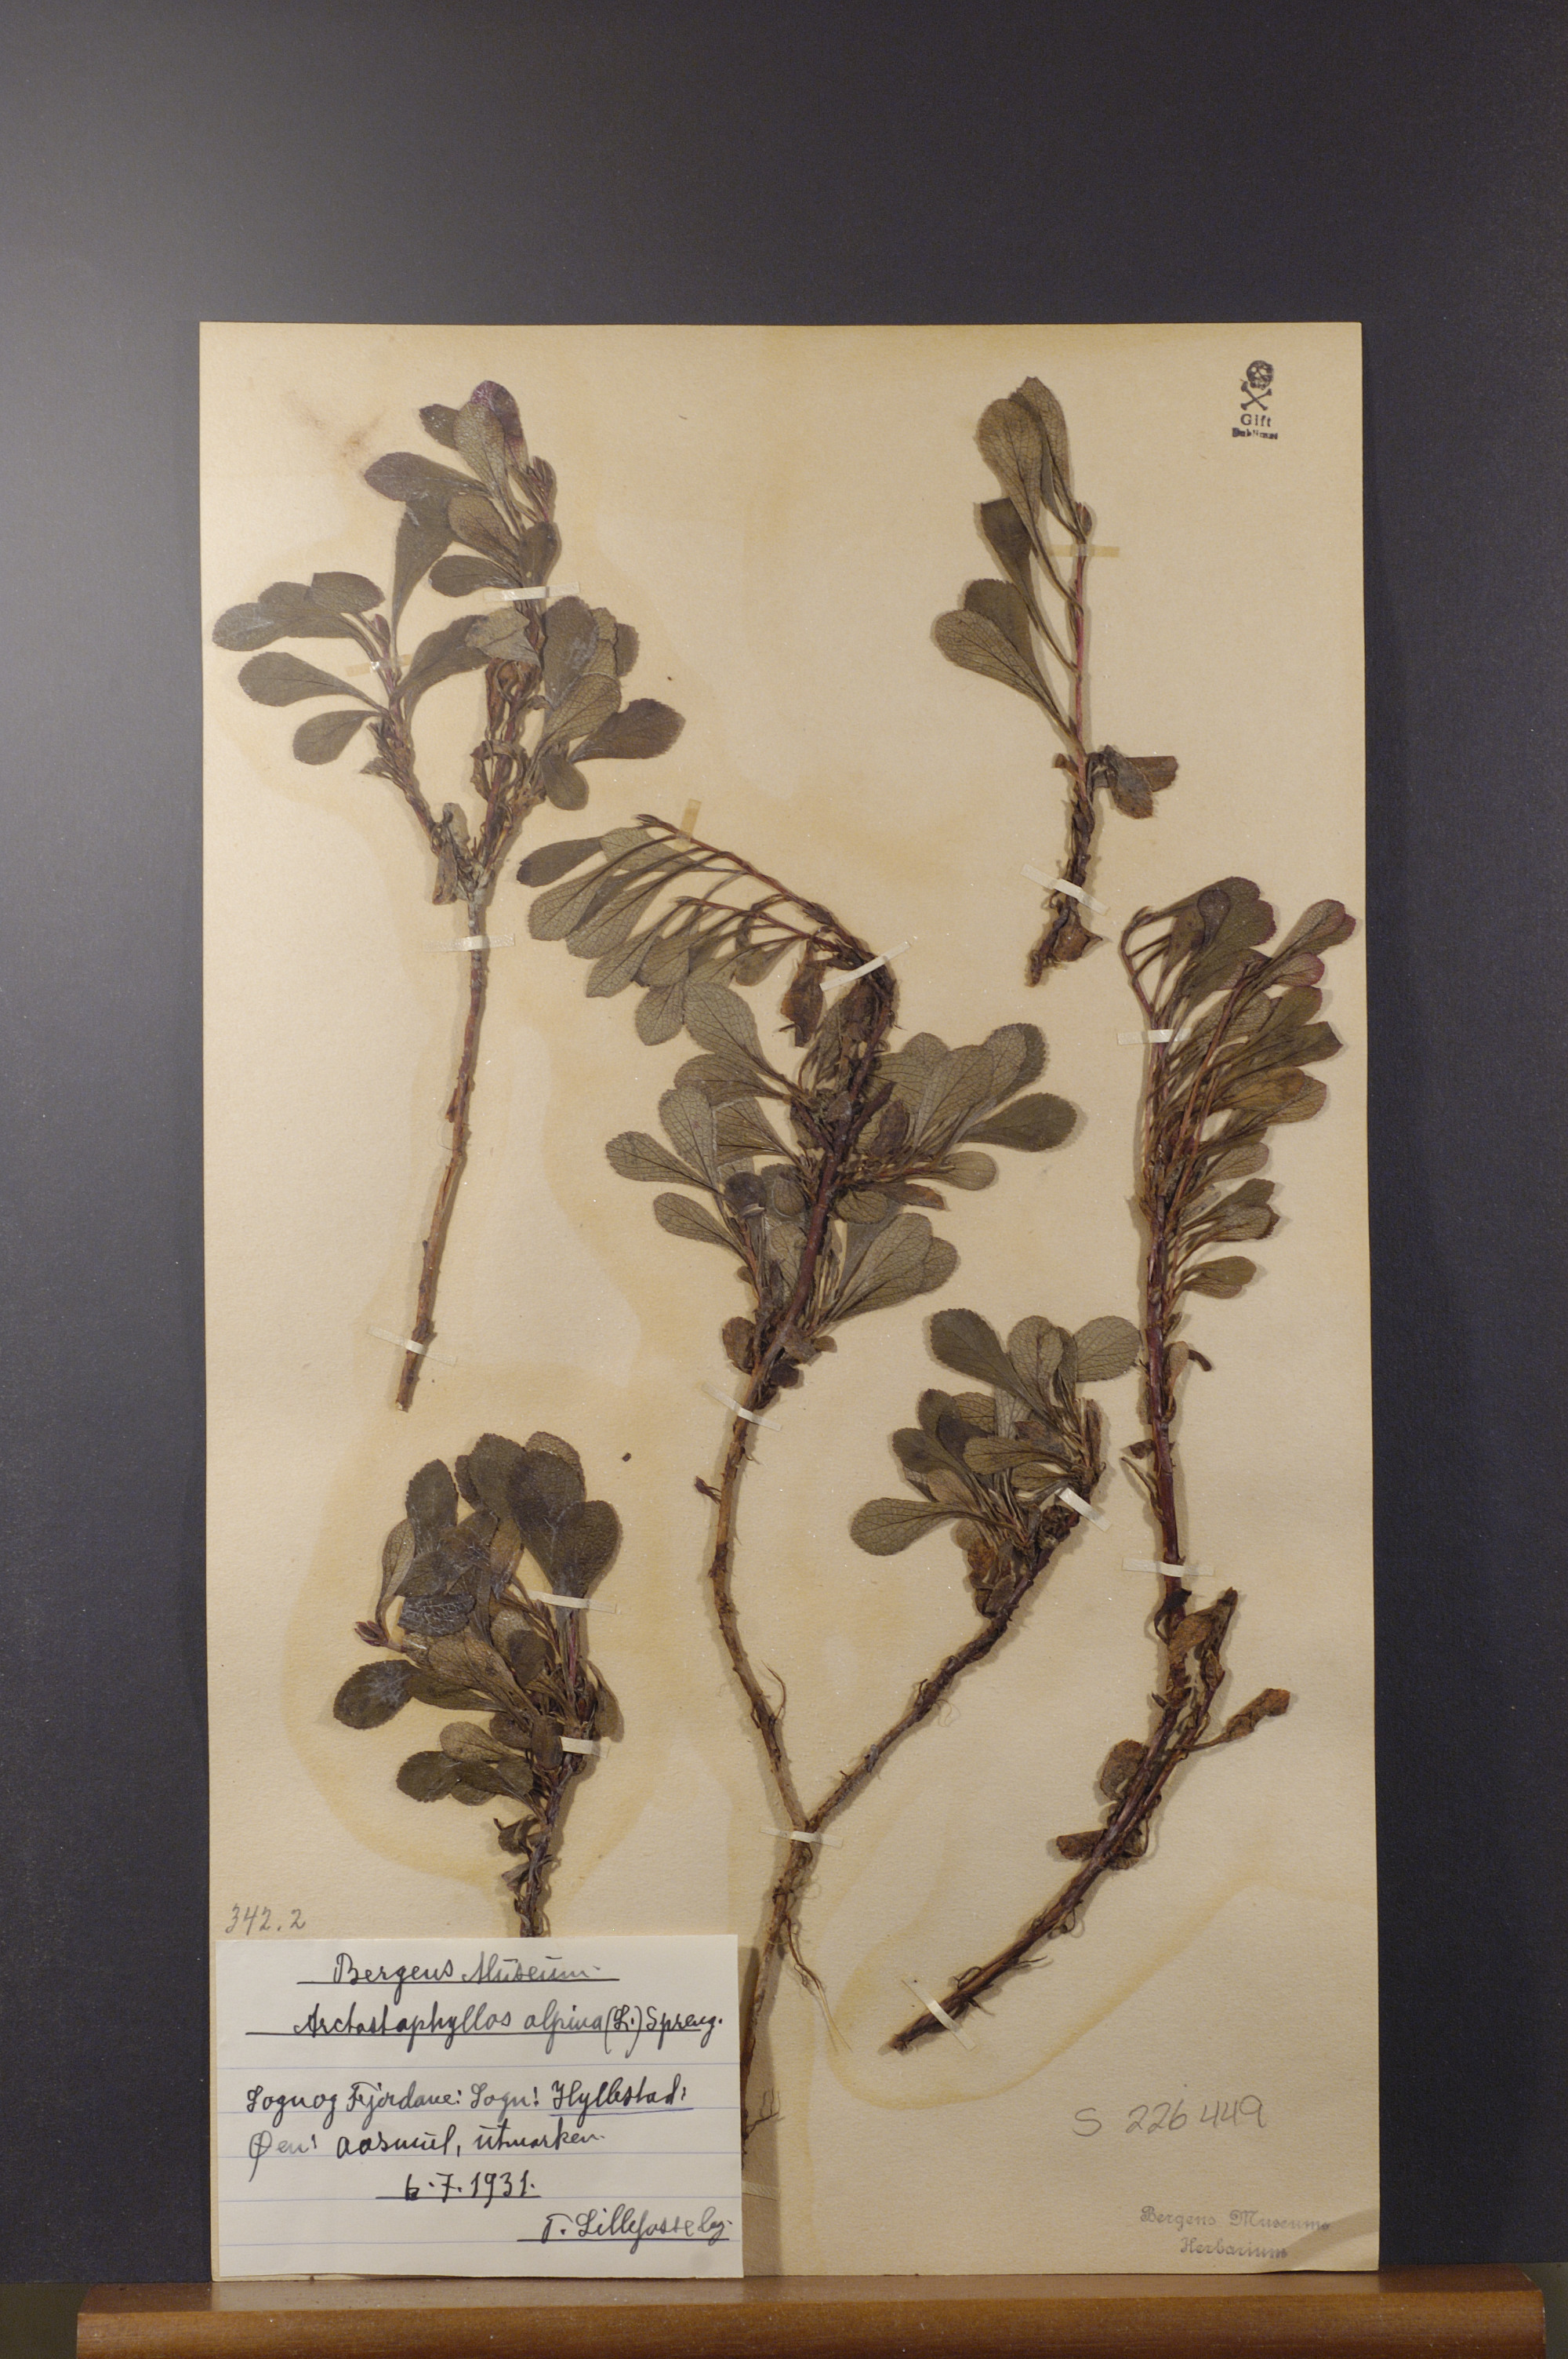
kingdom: Plantae
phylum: Tracheophyta
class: Magnoliopsida
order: Ericales
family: Ericaceae
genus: Arctostaphylos
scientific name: Arctostaphylos alpinus
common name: Alpine bearberry
